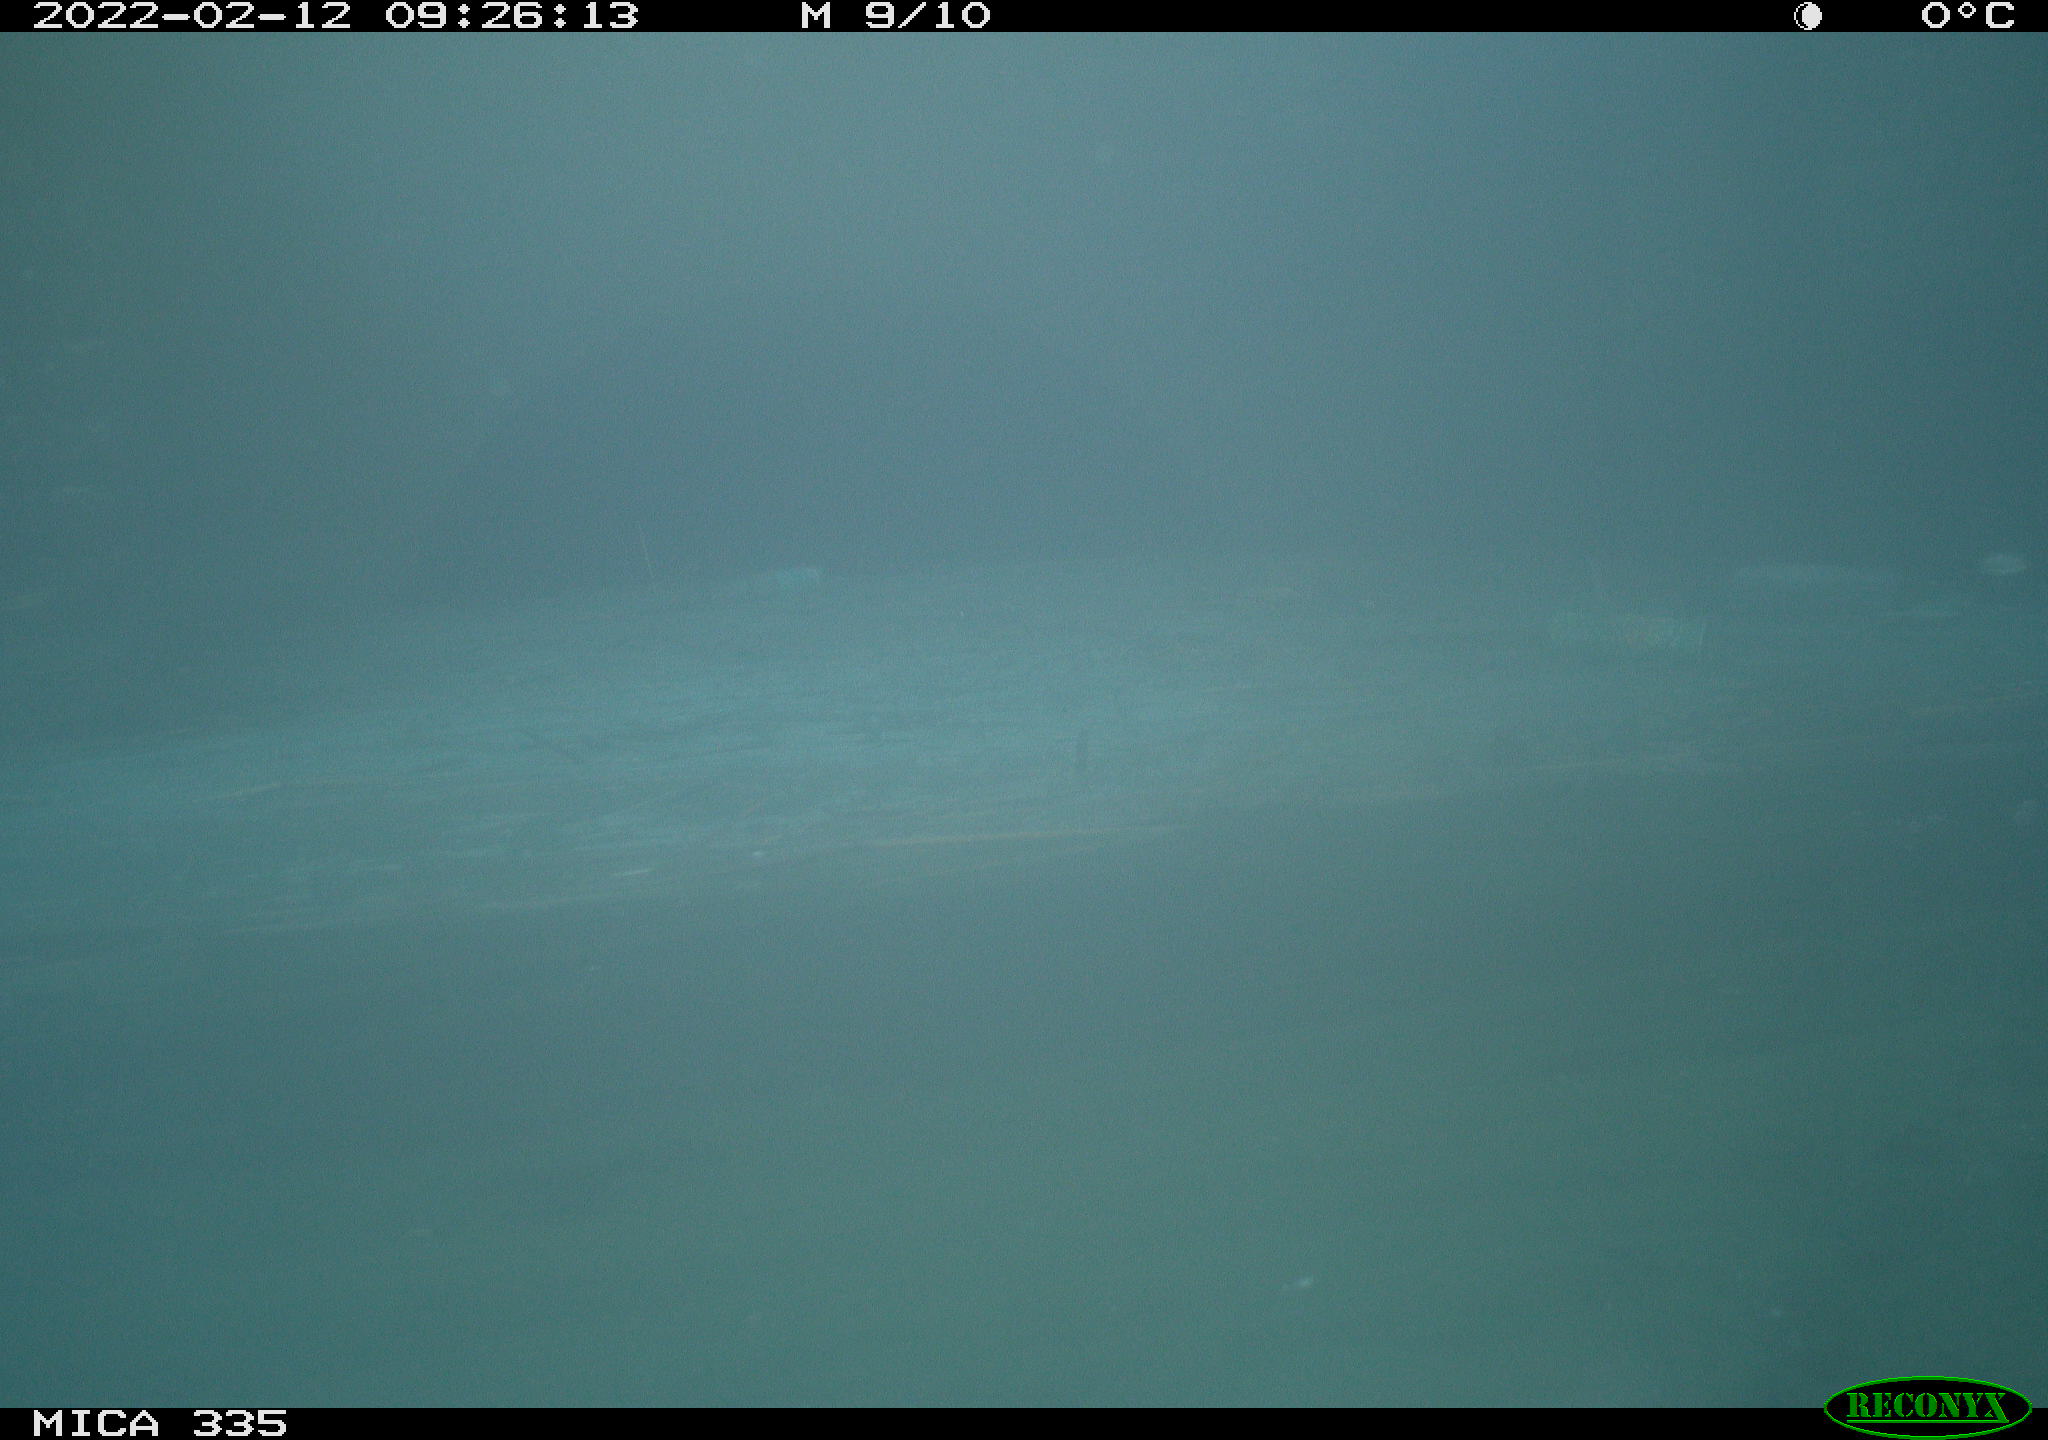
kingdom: Animalia
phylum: Chordata
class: Aves
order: Gruiformes
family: Rallidae
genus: Gallinula
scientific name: Gallinula chloropus
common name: Common moorhen
